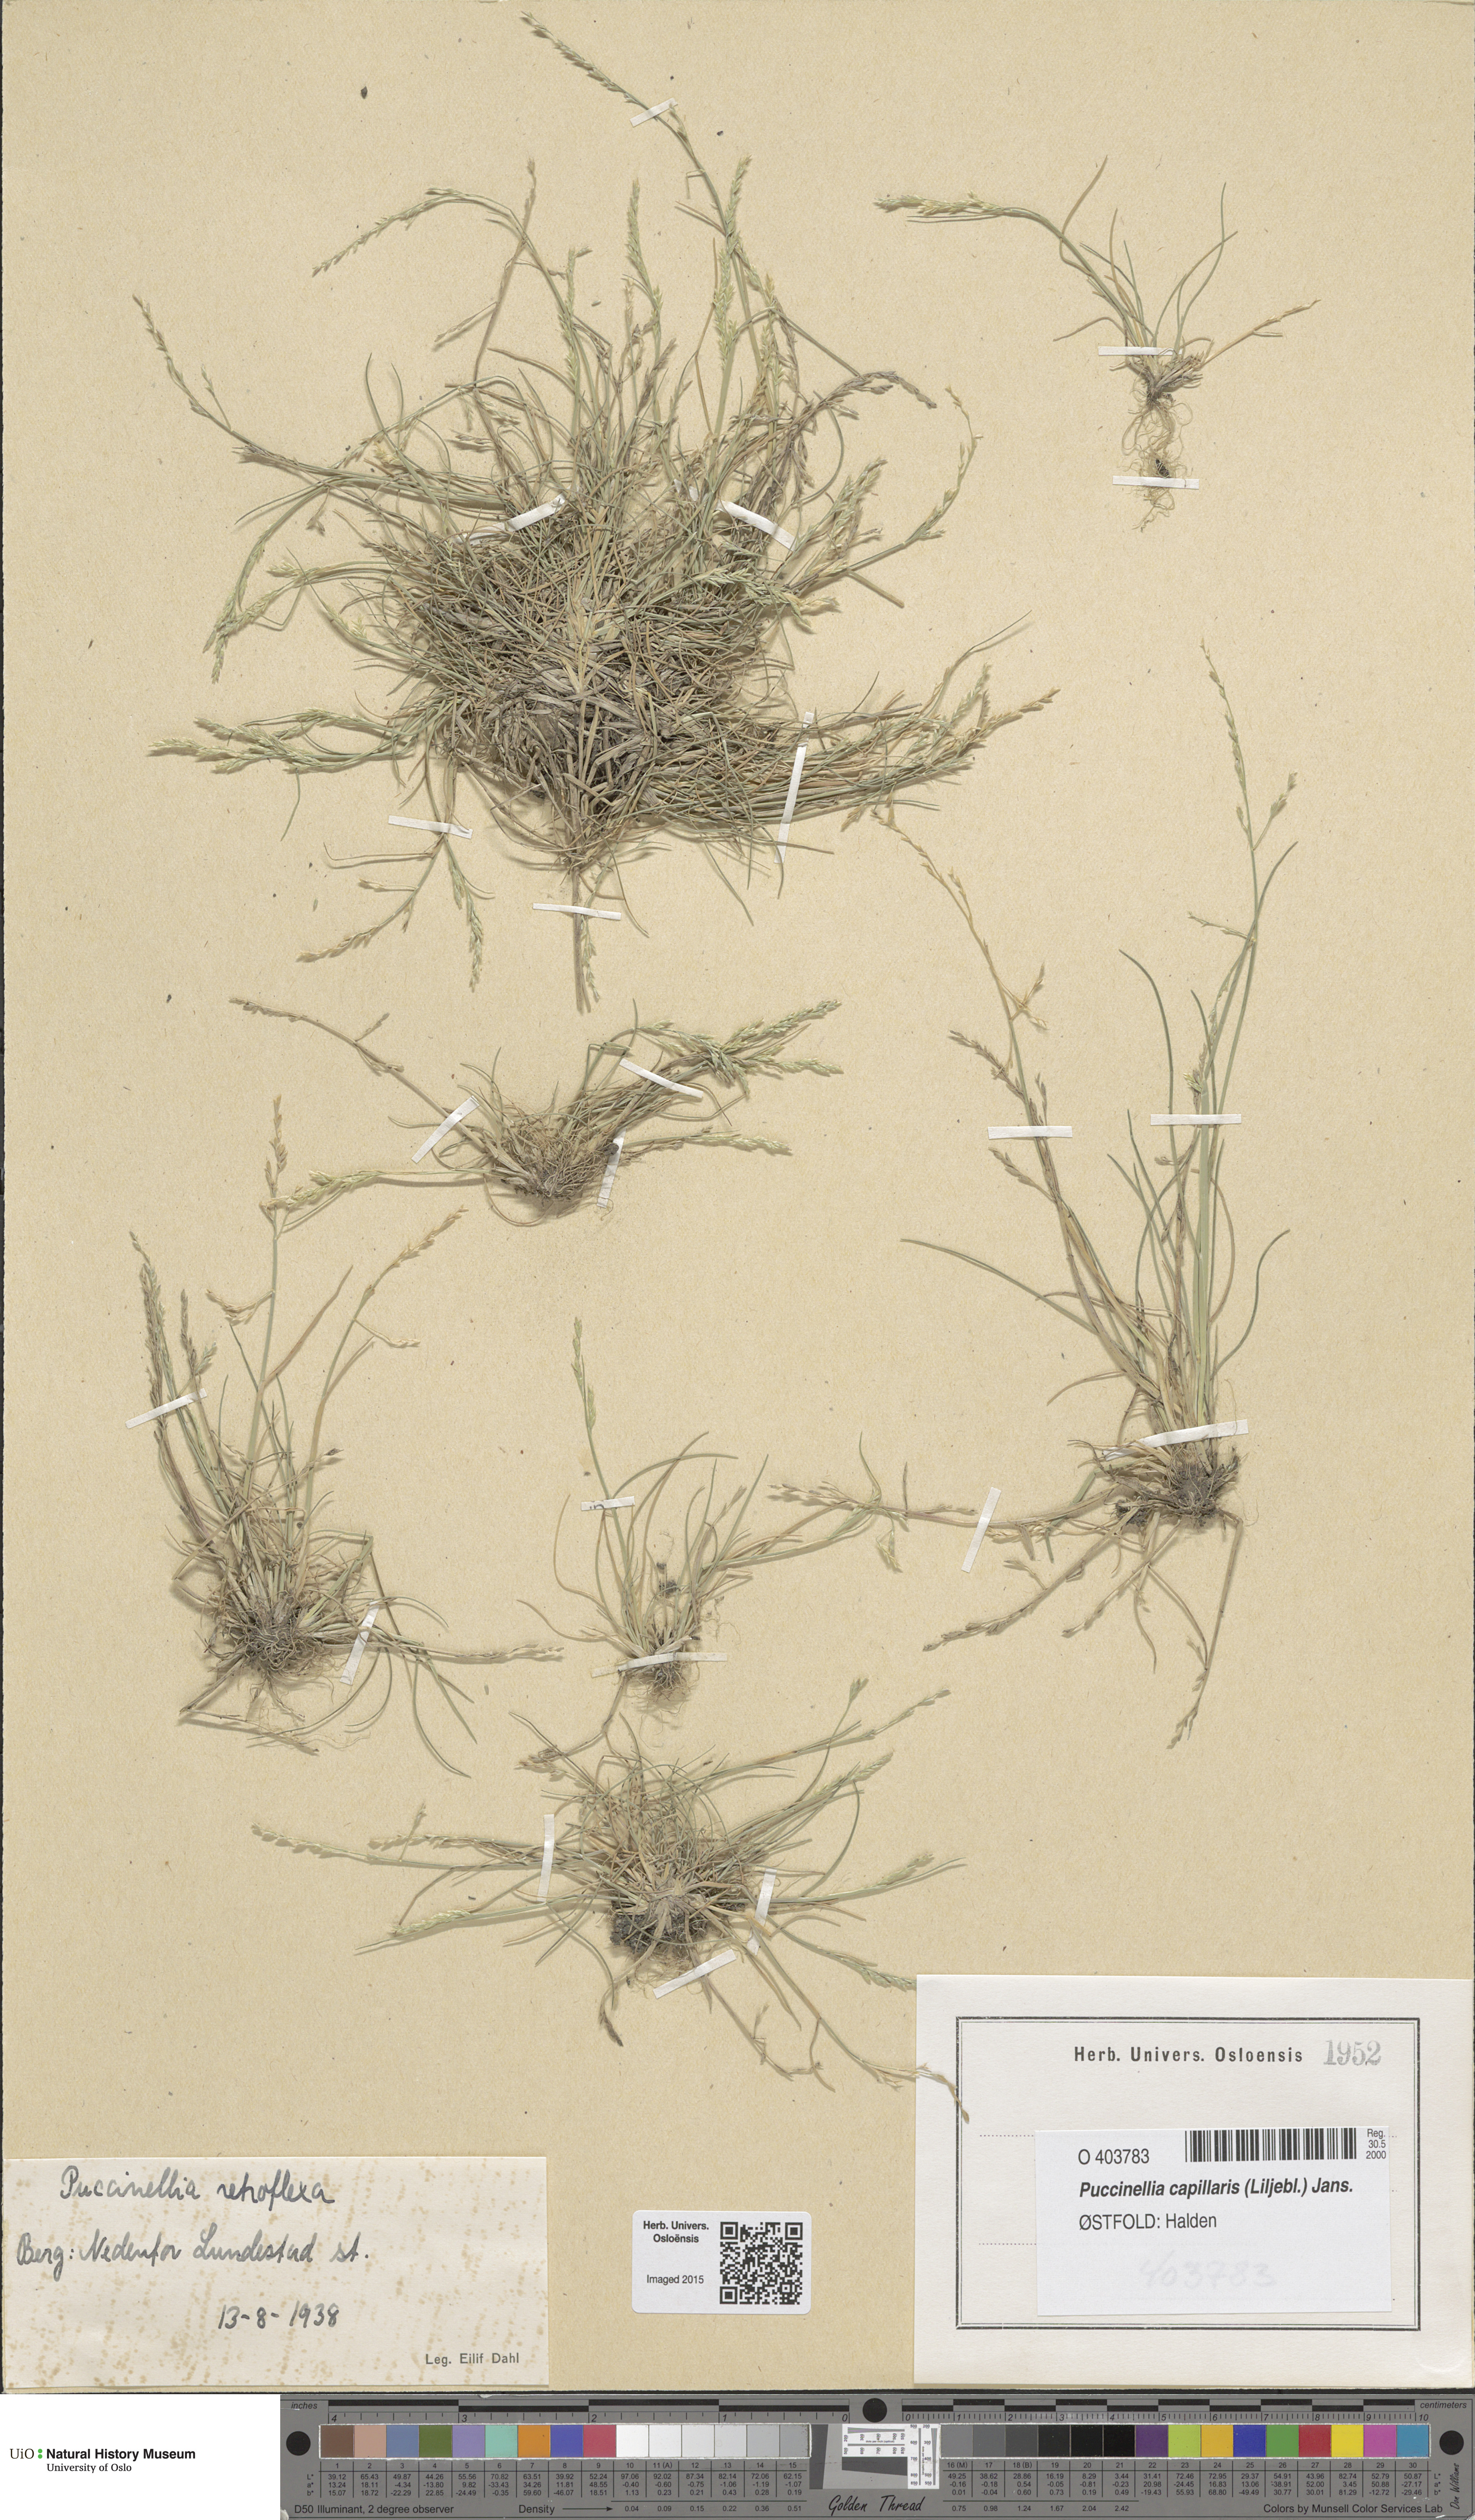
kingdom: Plantae
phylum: Tracheophyta
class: Liliopsida
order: Poales
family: Poaceae
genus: Puccinellia
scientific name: Puccinellia distans
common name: Weeping alkaligrass
